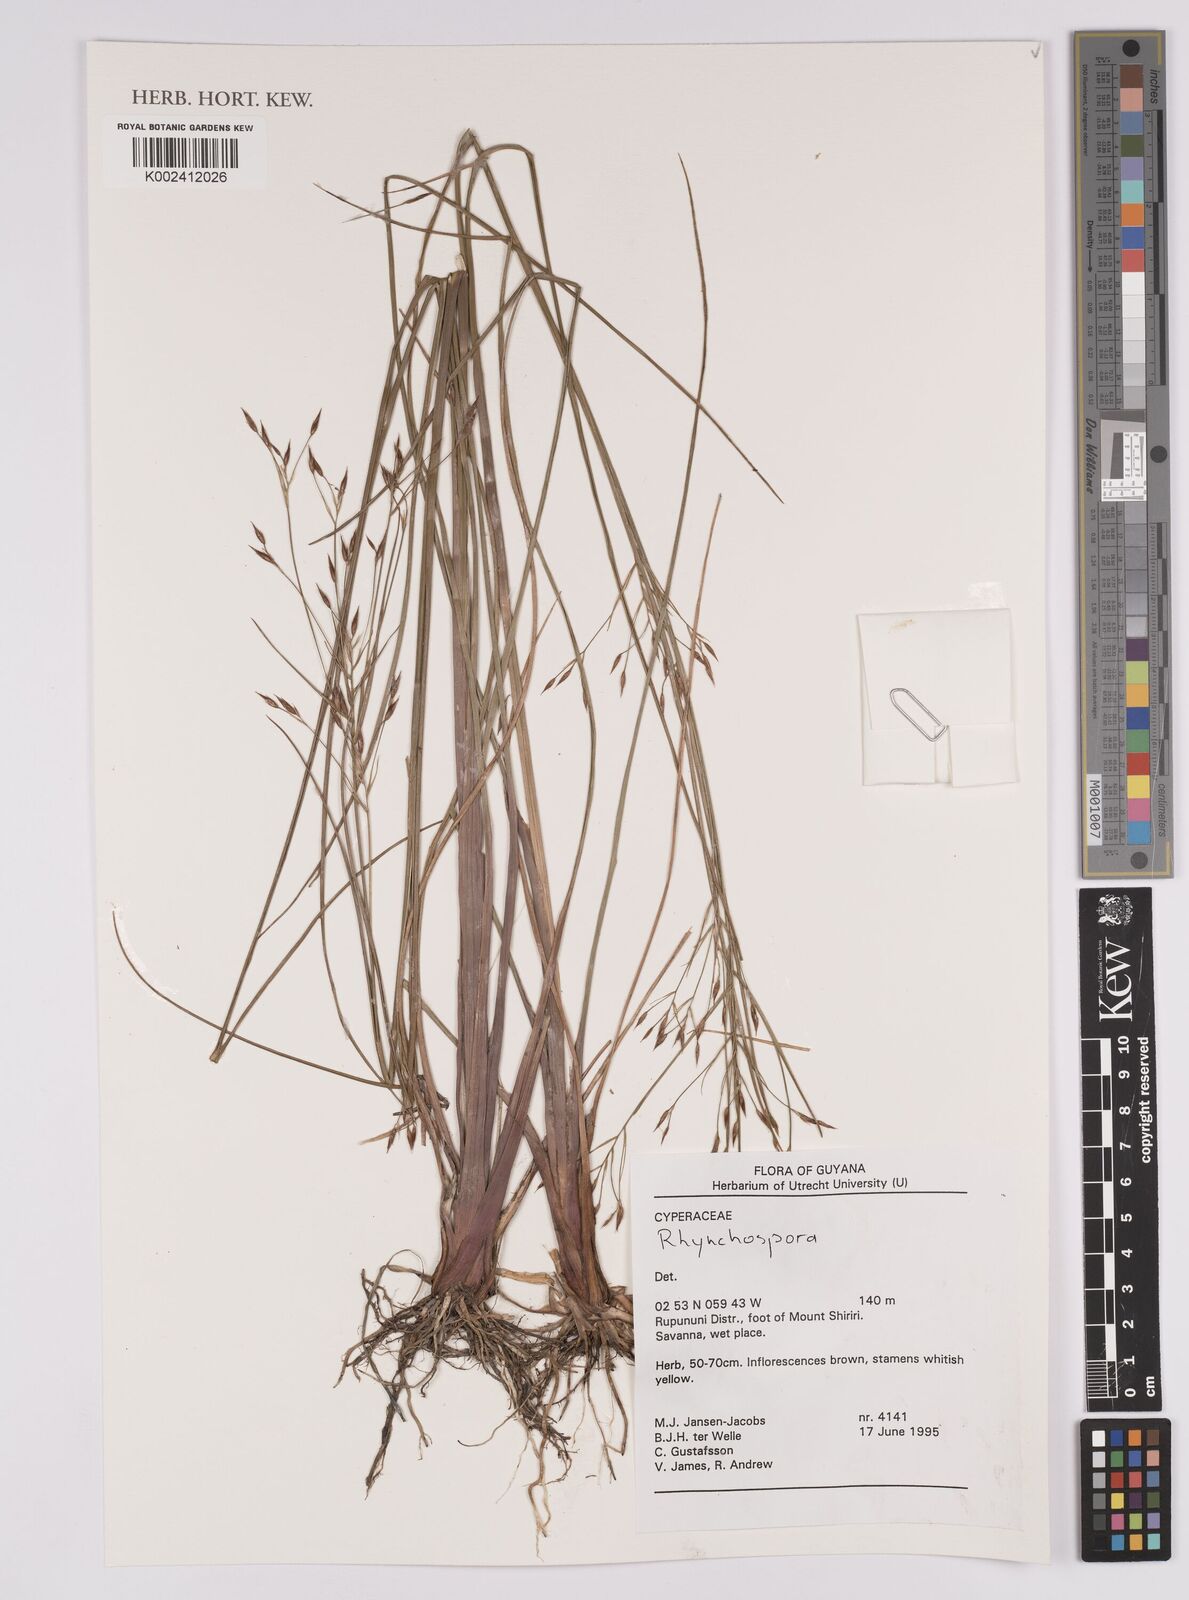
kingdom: Plantae
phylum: Tracheophyta
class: Liliopsida
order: Poales
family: Cyperaceae
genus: Rhynchospora
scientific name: Rhynchospora
